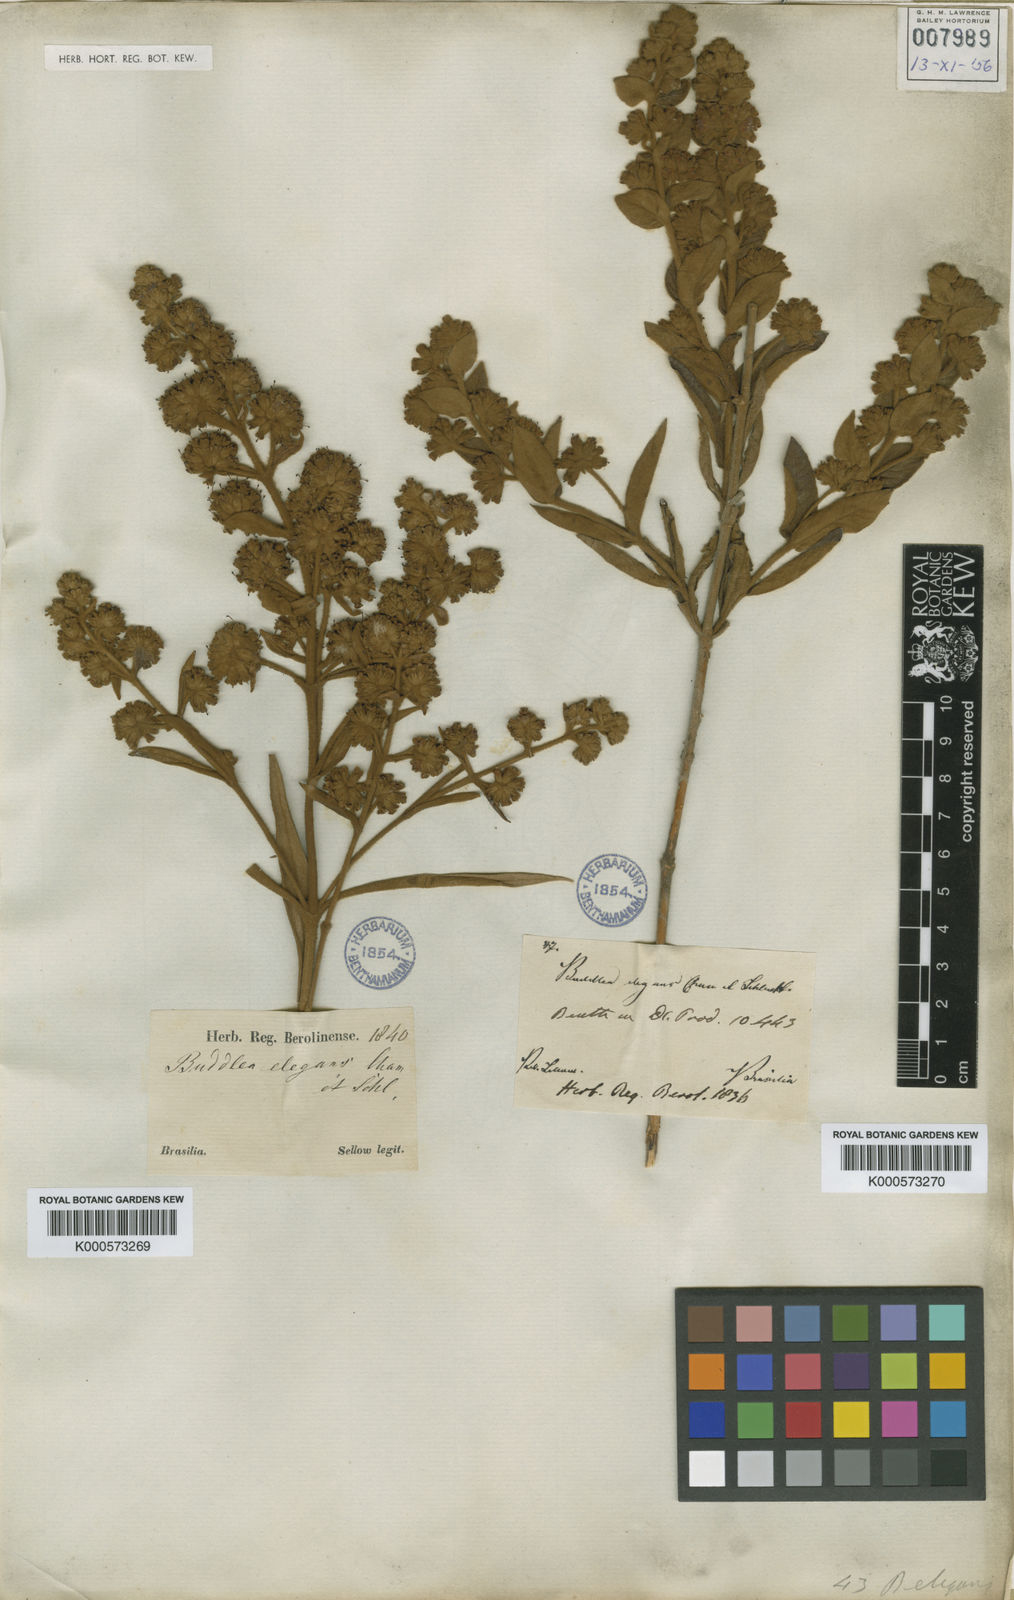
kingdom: Plantae
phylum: Tracheophyta
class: Magnoliopsida
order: Lamiales
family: Scrophulariaceae
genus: Buddleja
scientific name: Buddleja elegans
